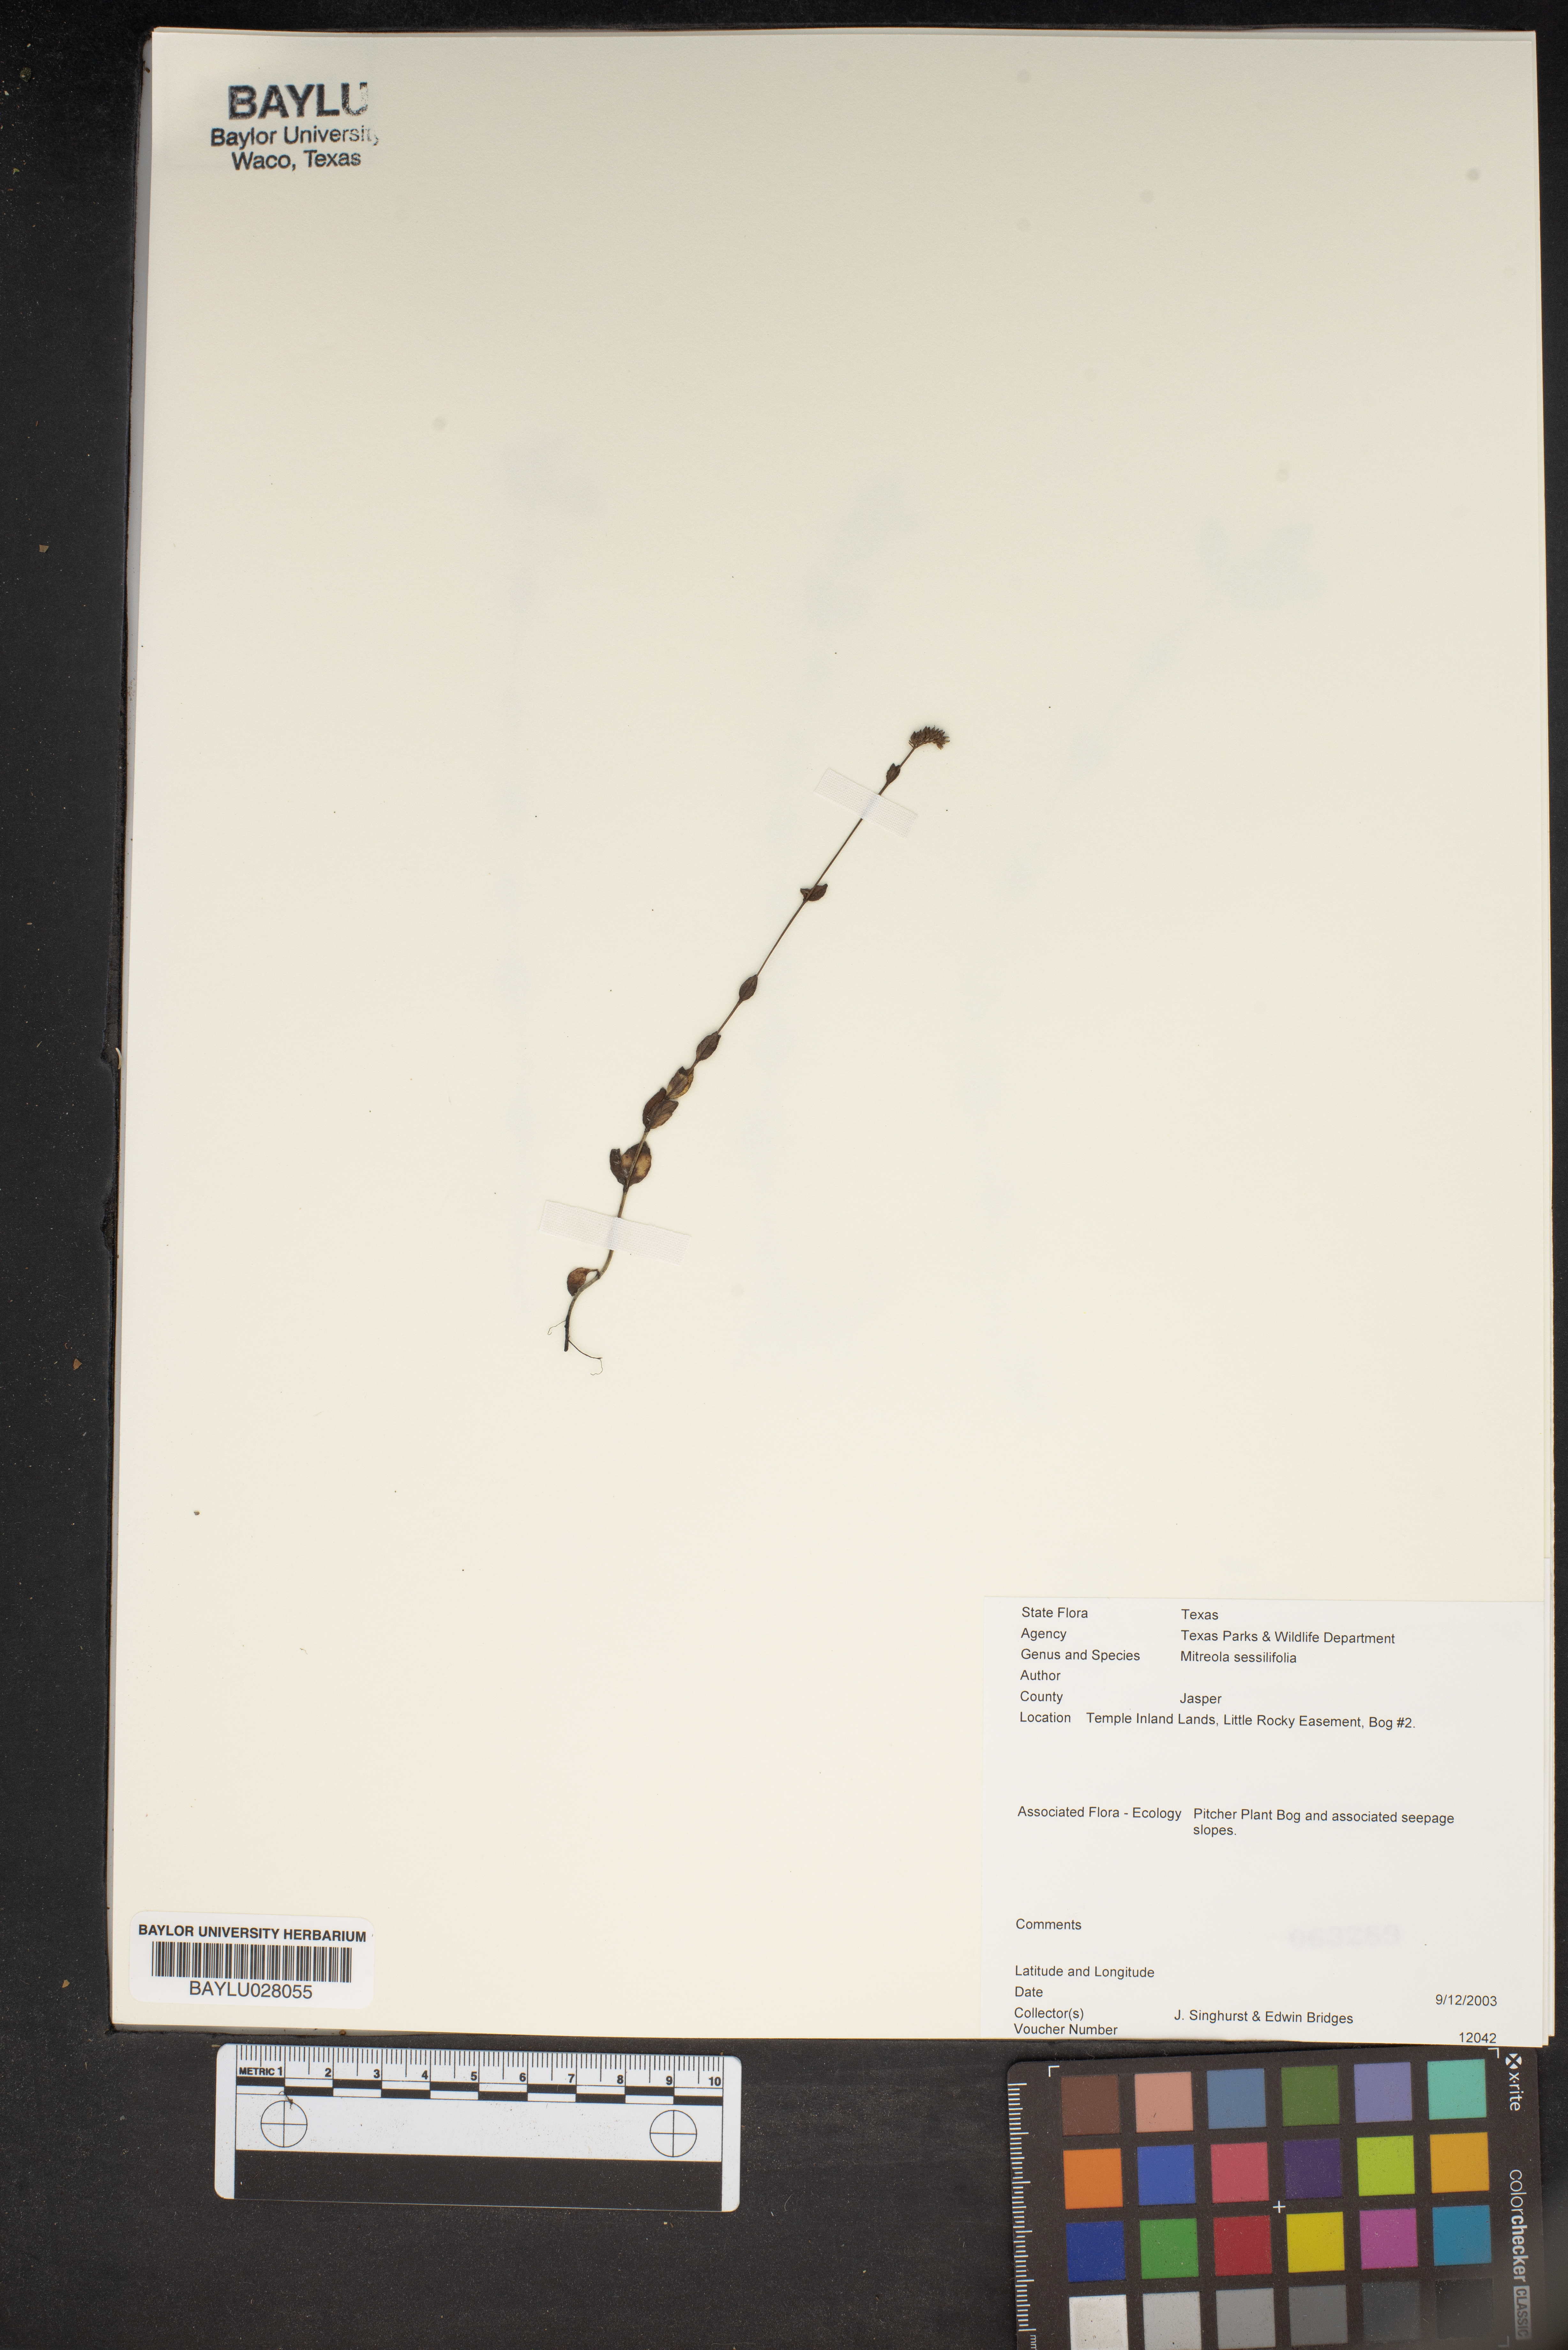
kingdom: Plantae
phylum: Tracheophyta
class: Magnoliopsida
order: Gentianales
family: Loganiaceae
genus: Mitreola
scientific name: Mitreola sessilifolia
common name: Swamp hornpod
